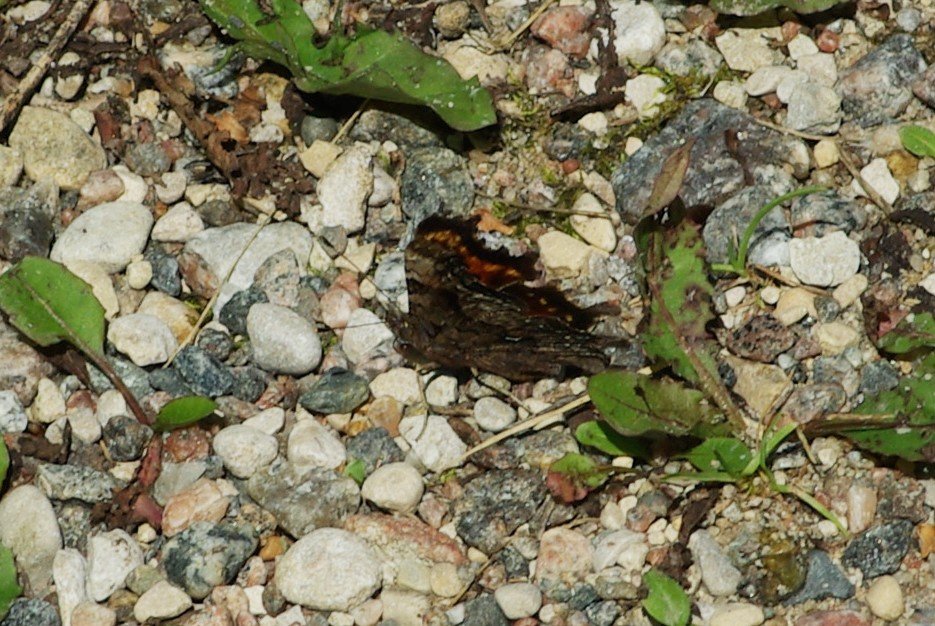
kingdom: Animalia
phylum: Arthropoda
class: Insecta
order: Lepidoptera
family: Nymphalidae
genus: Polygonia
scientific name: Polygonia faunus
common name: Green Comma
